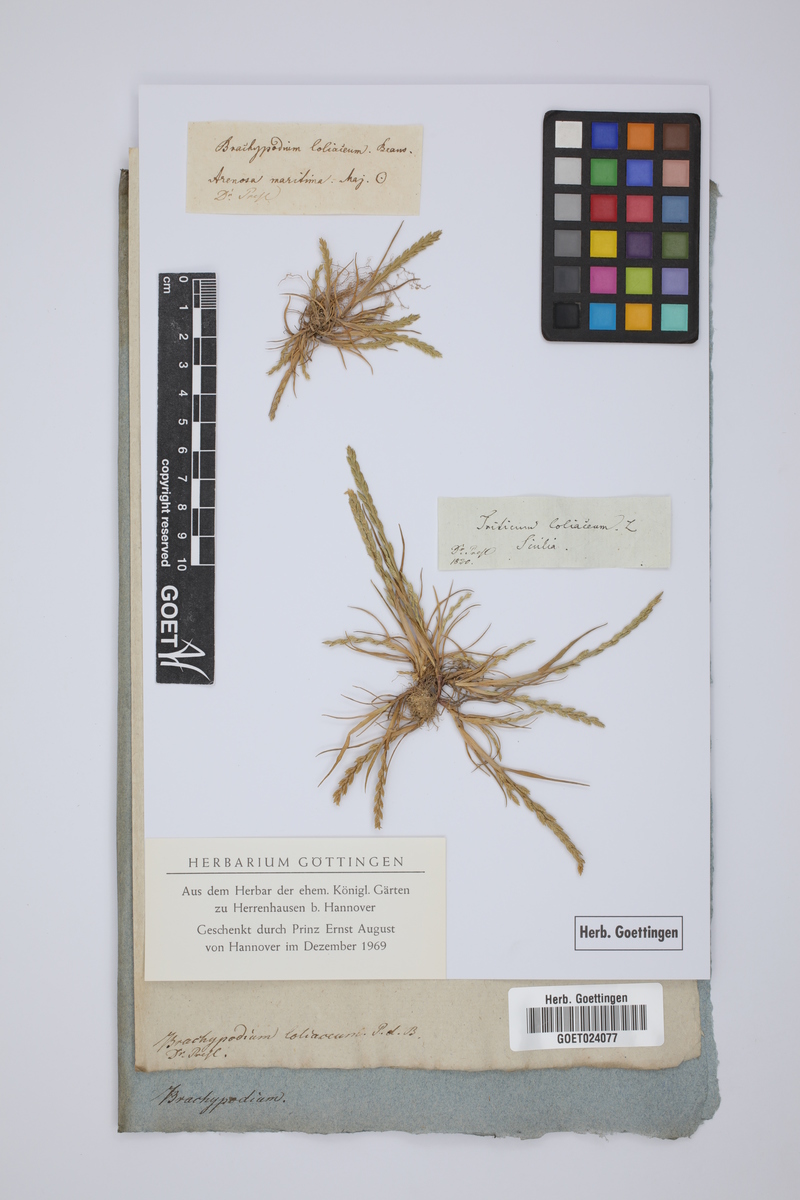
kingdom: Plantae
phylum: Tracheophyta
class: Liliopsida
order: Poales
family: Poaceae
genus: Catapodium
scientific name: Catapodium marinum
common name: Sea fern-grass
